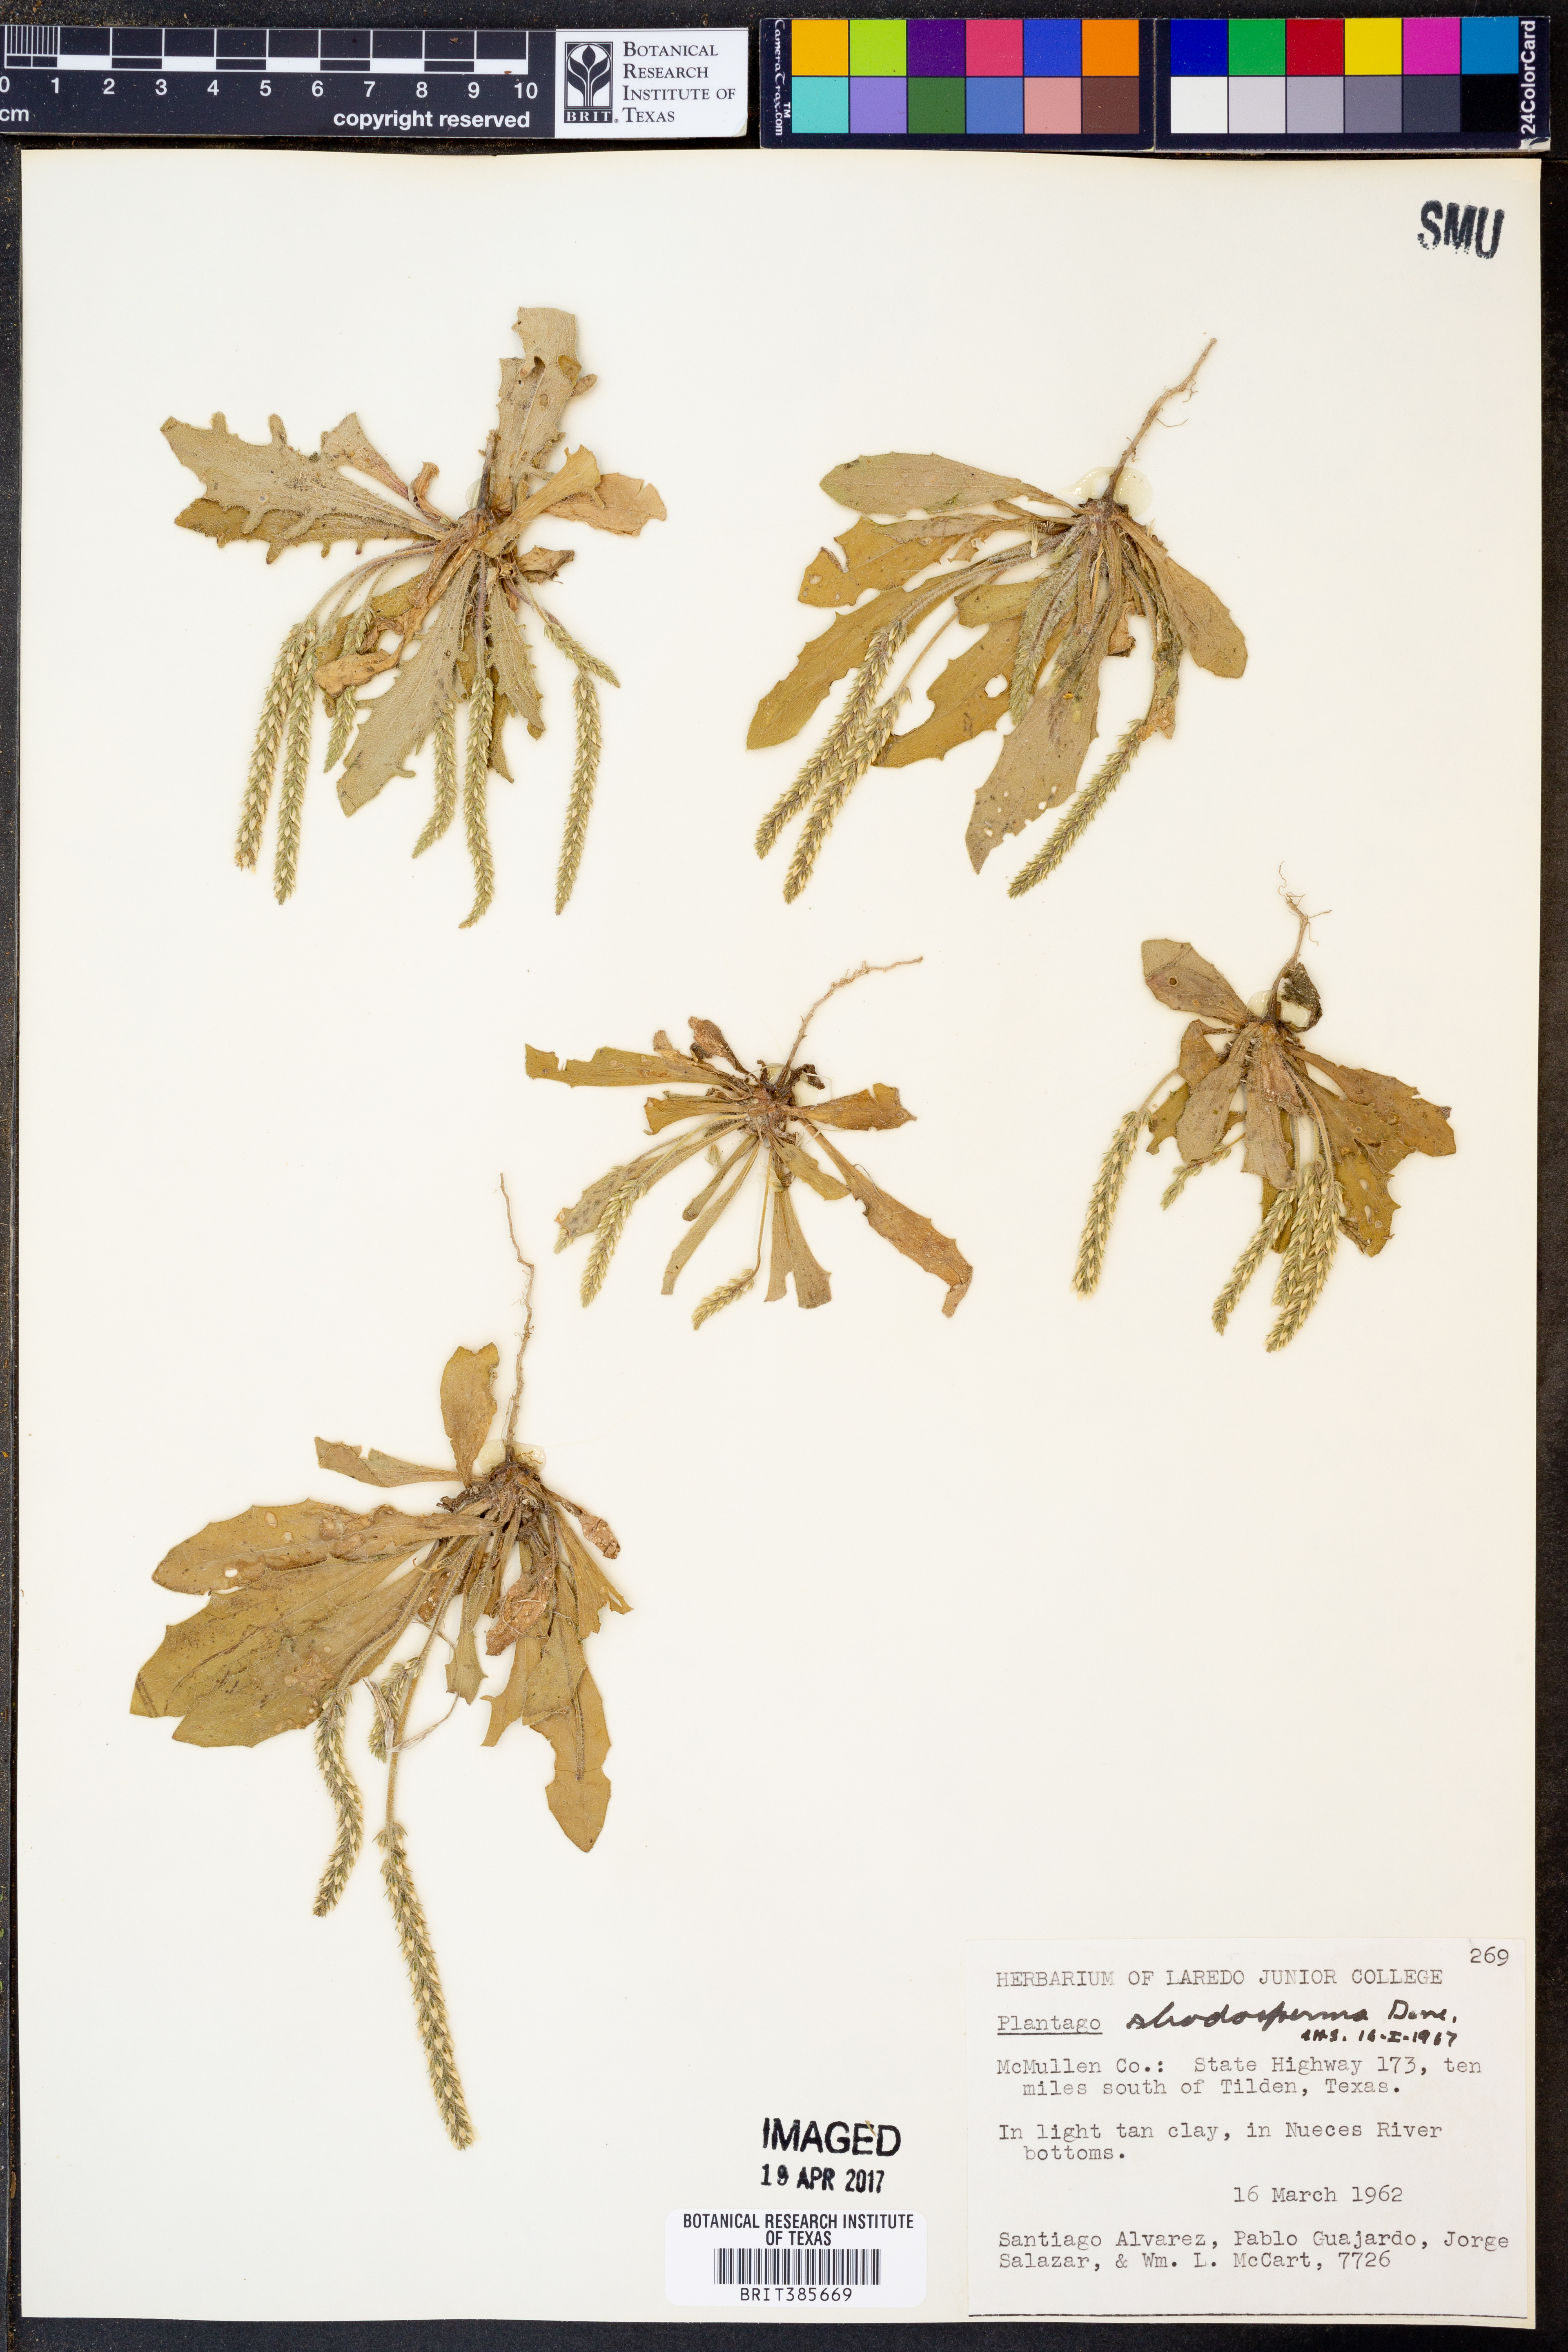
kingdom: Plantae
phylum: Tracheophyta
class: Magnoliopsida
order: Lamiales
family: Plantaginaceae
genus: Plantago
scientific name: Plantago rhodosperma
